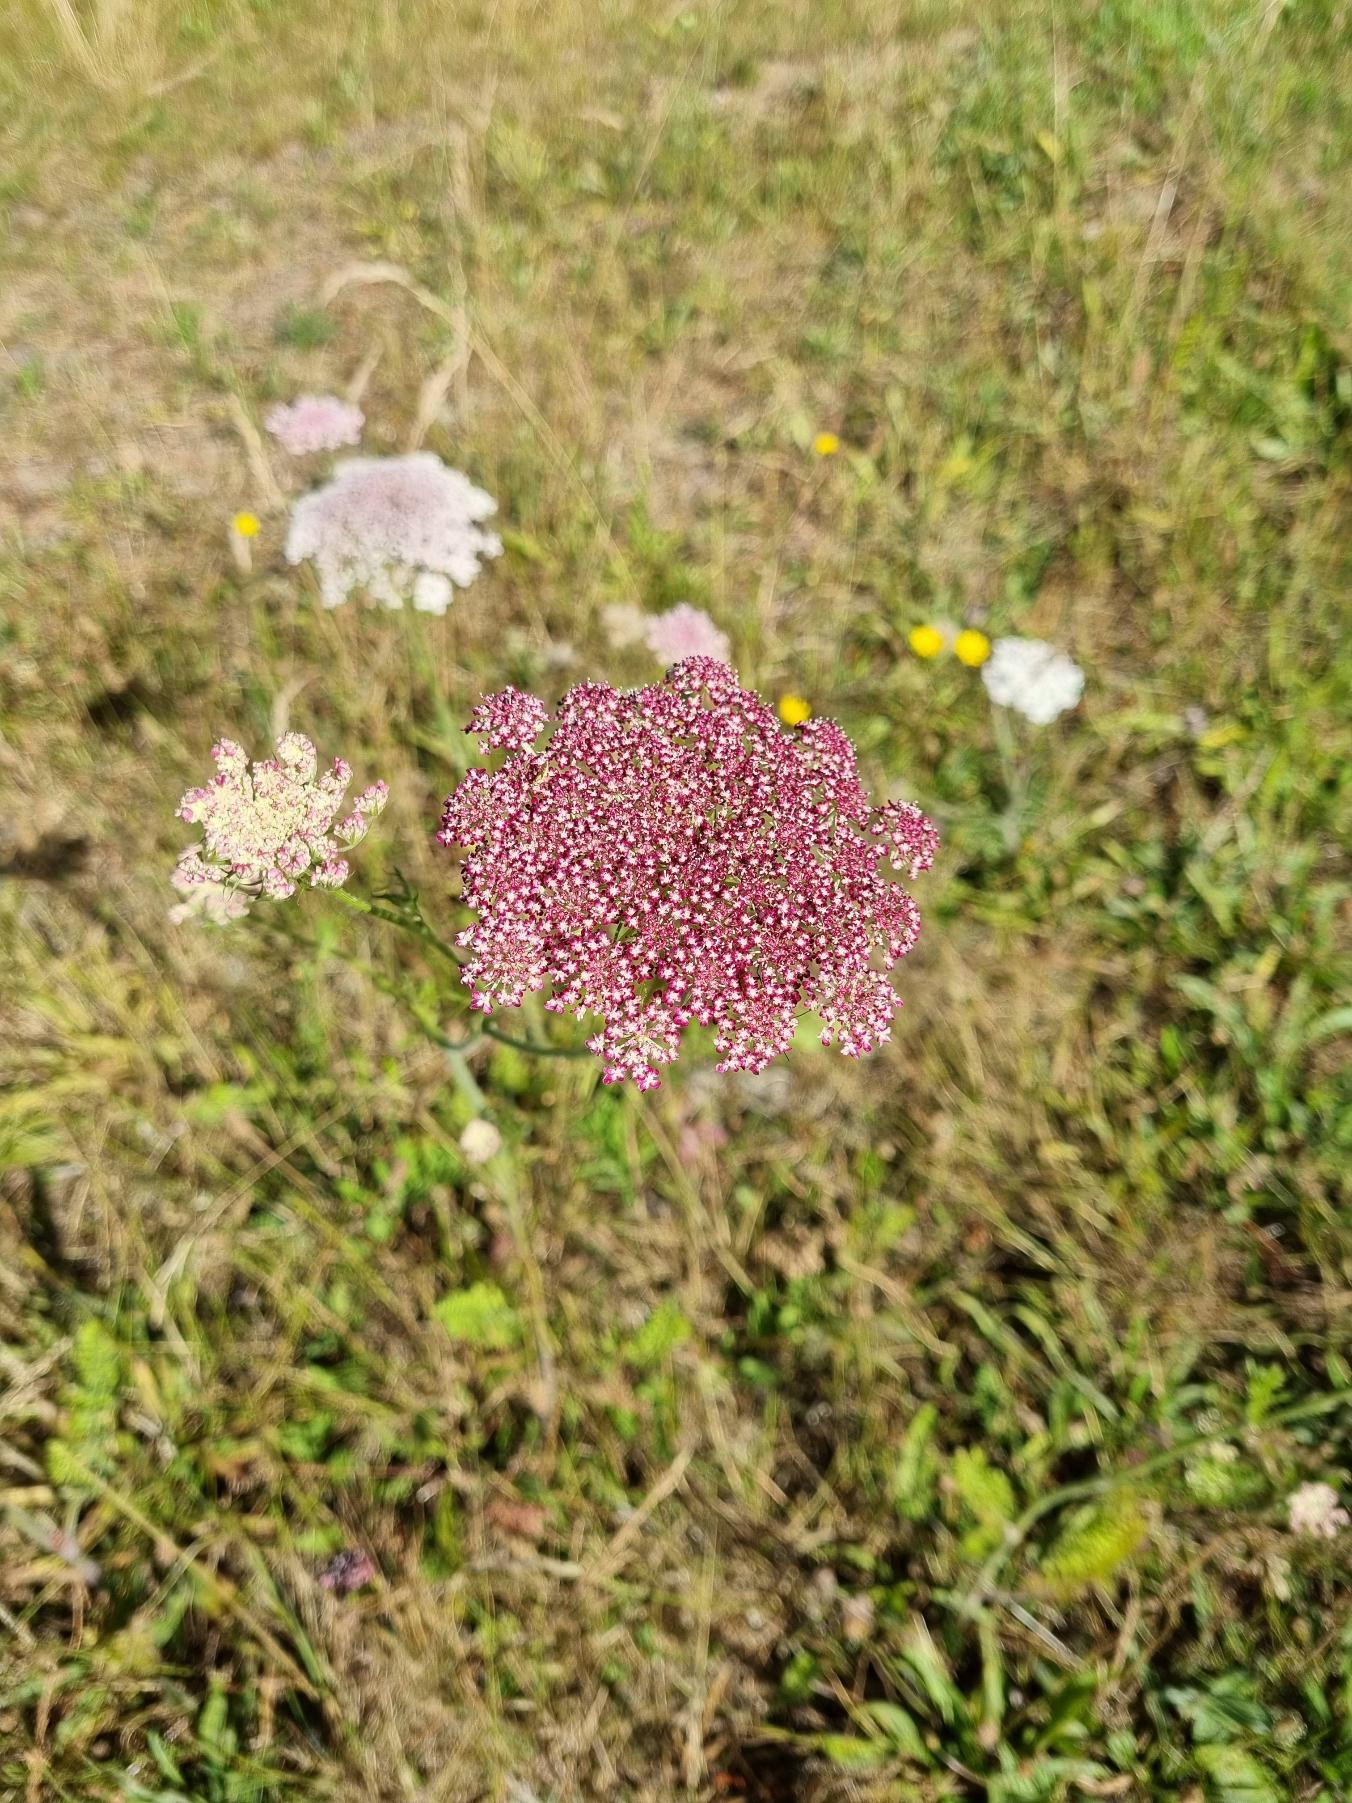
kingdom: Plantae
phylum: Tracheophyta
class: Magnoliopsida
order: Apiales
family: Apiaceae
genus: Daucus
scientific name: Daucus carota
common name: Gulerod
